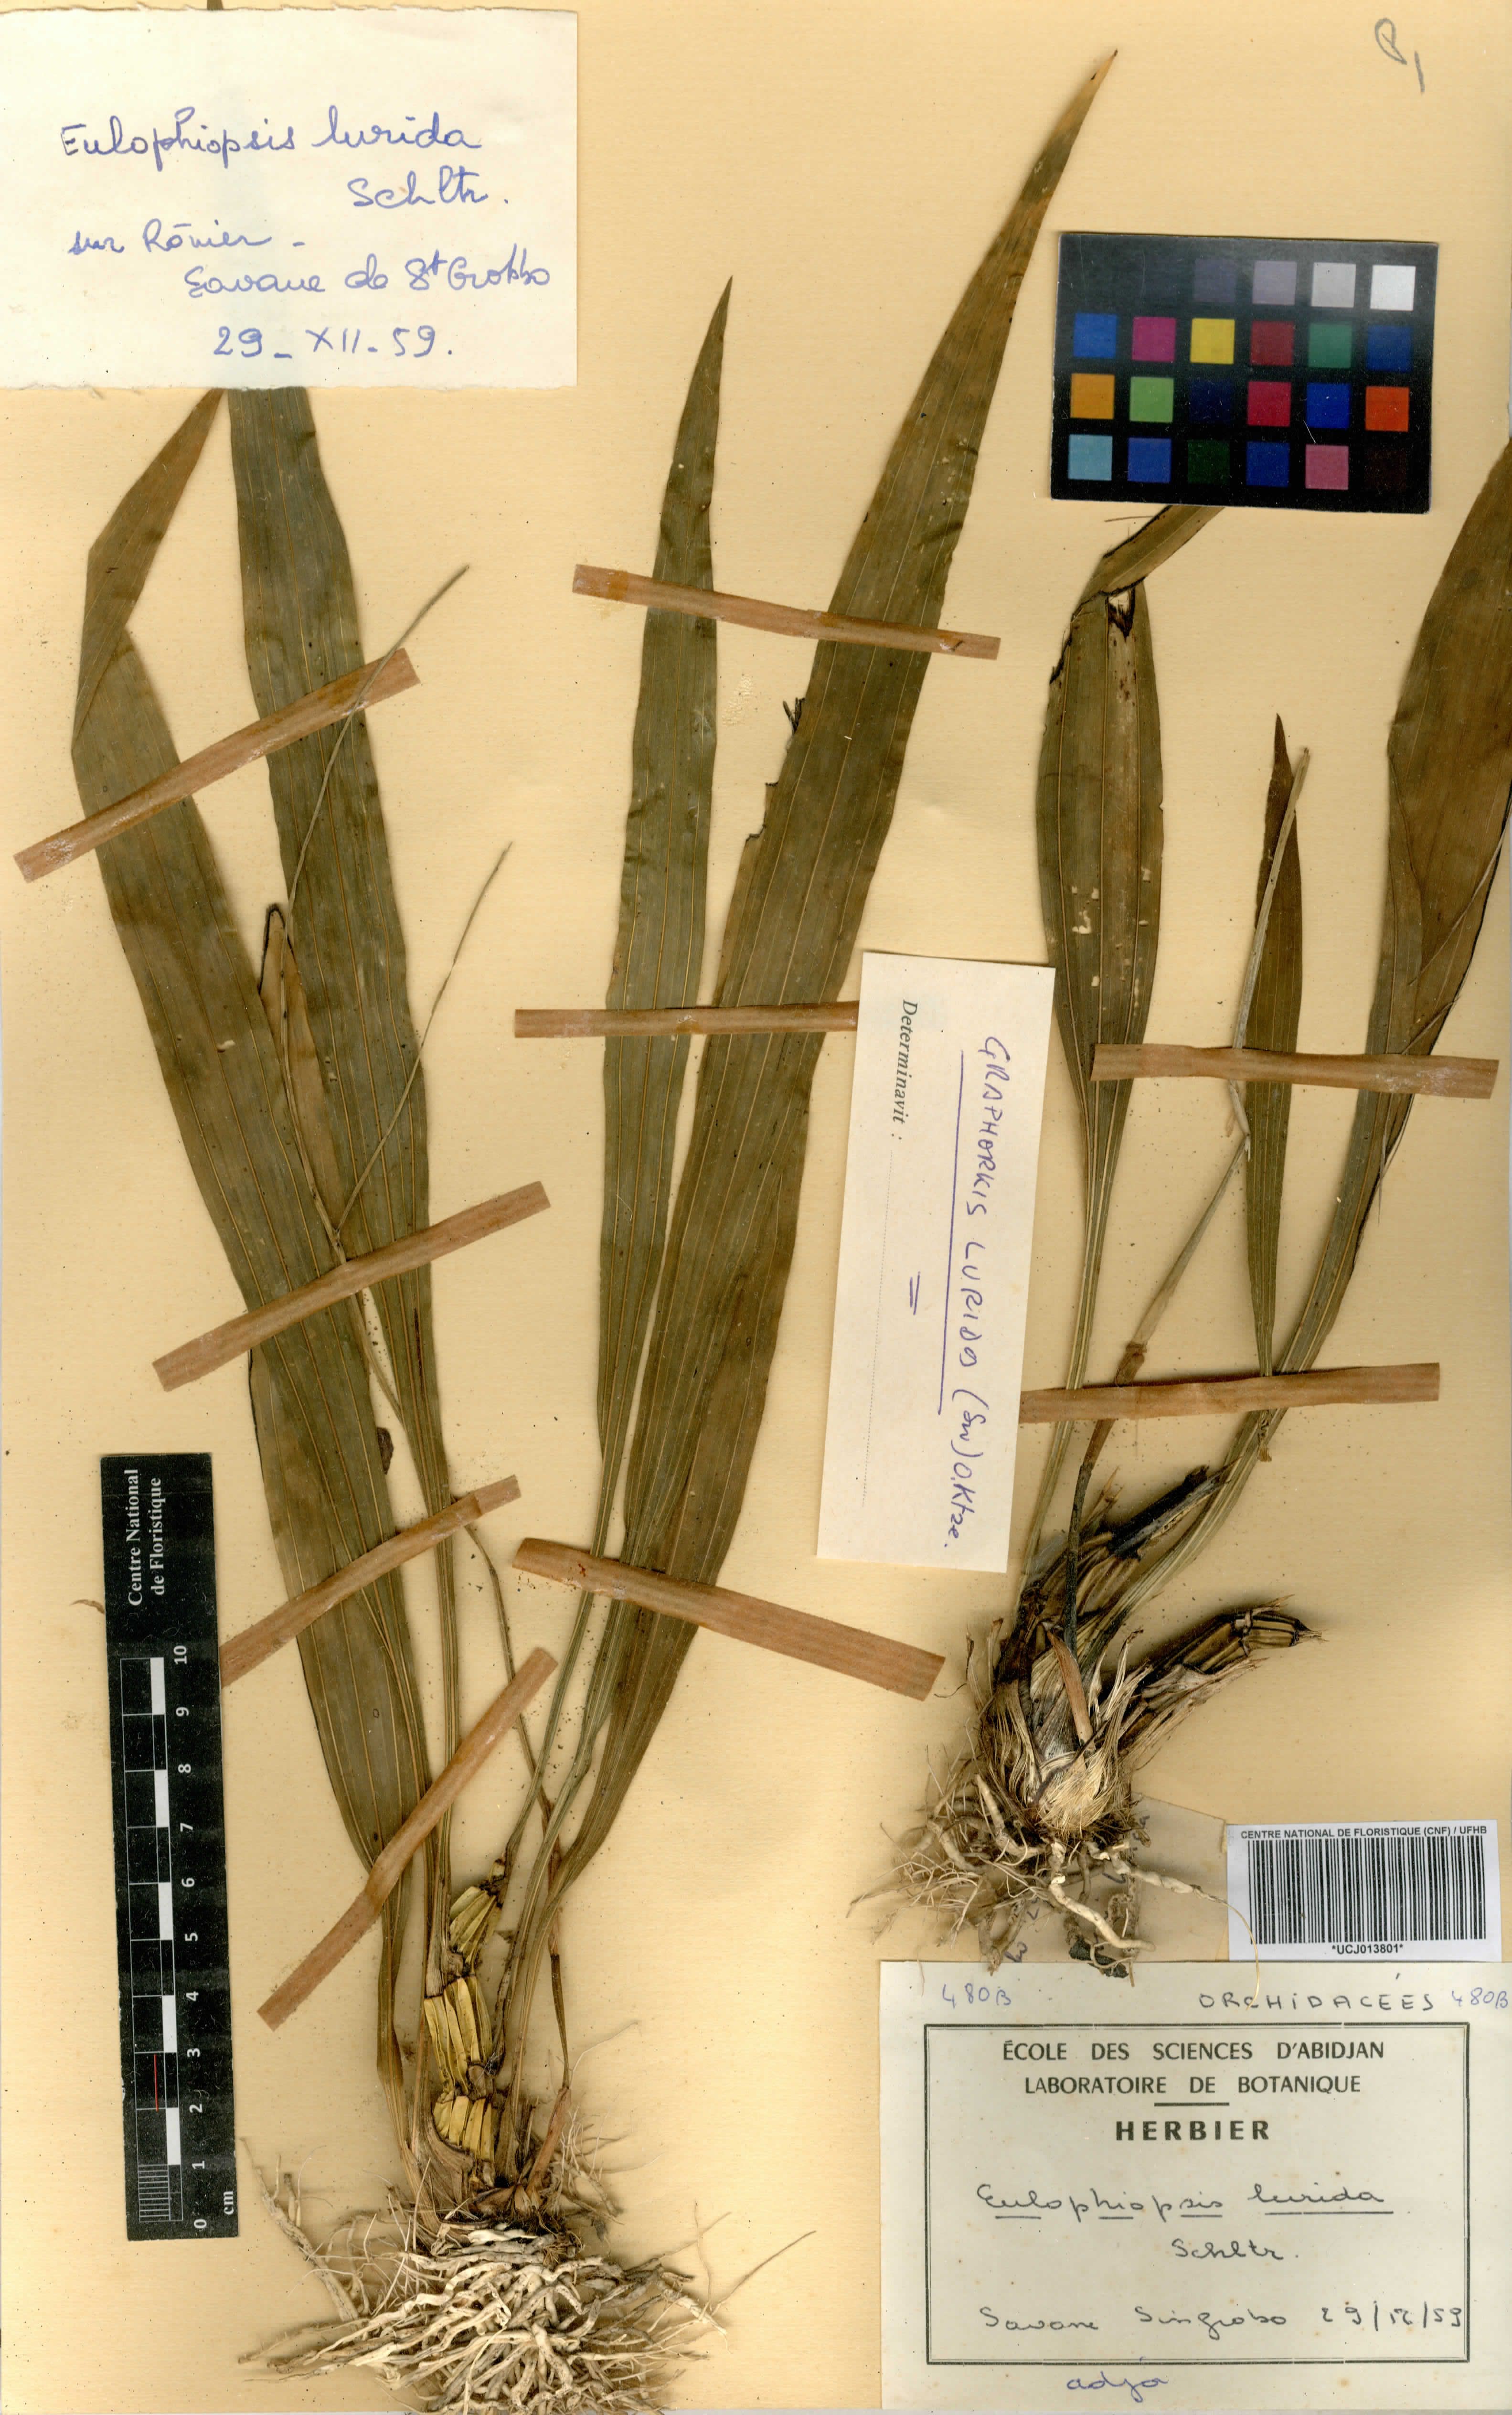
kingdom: Plantae
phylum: Tracheophyta
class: Liliopsida
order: Asparagales
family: Orchidaceae
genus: Graphorkis
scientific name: Graphorkis lurida
